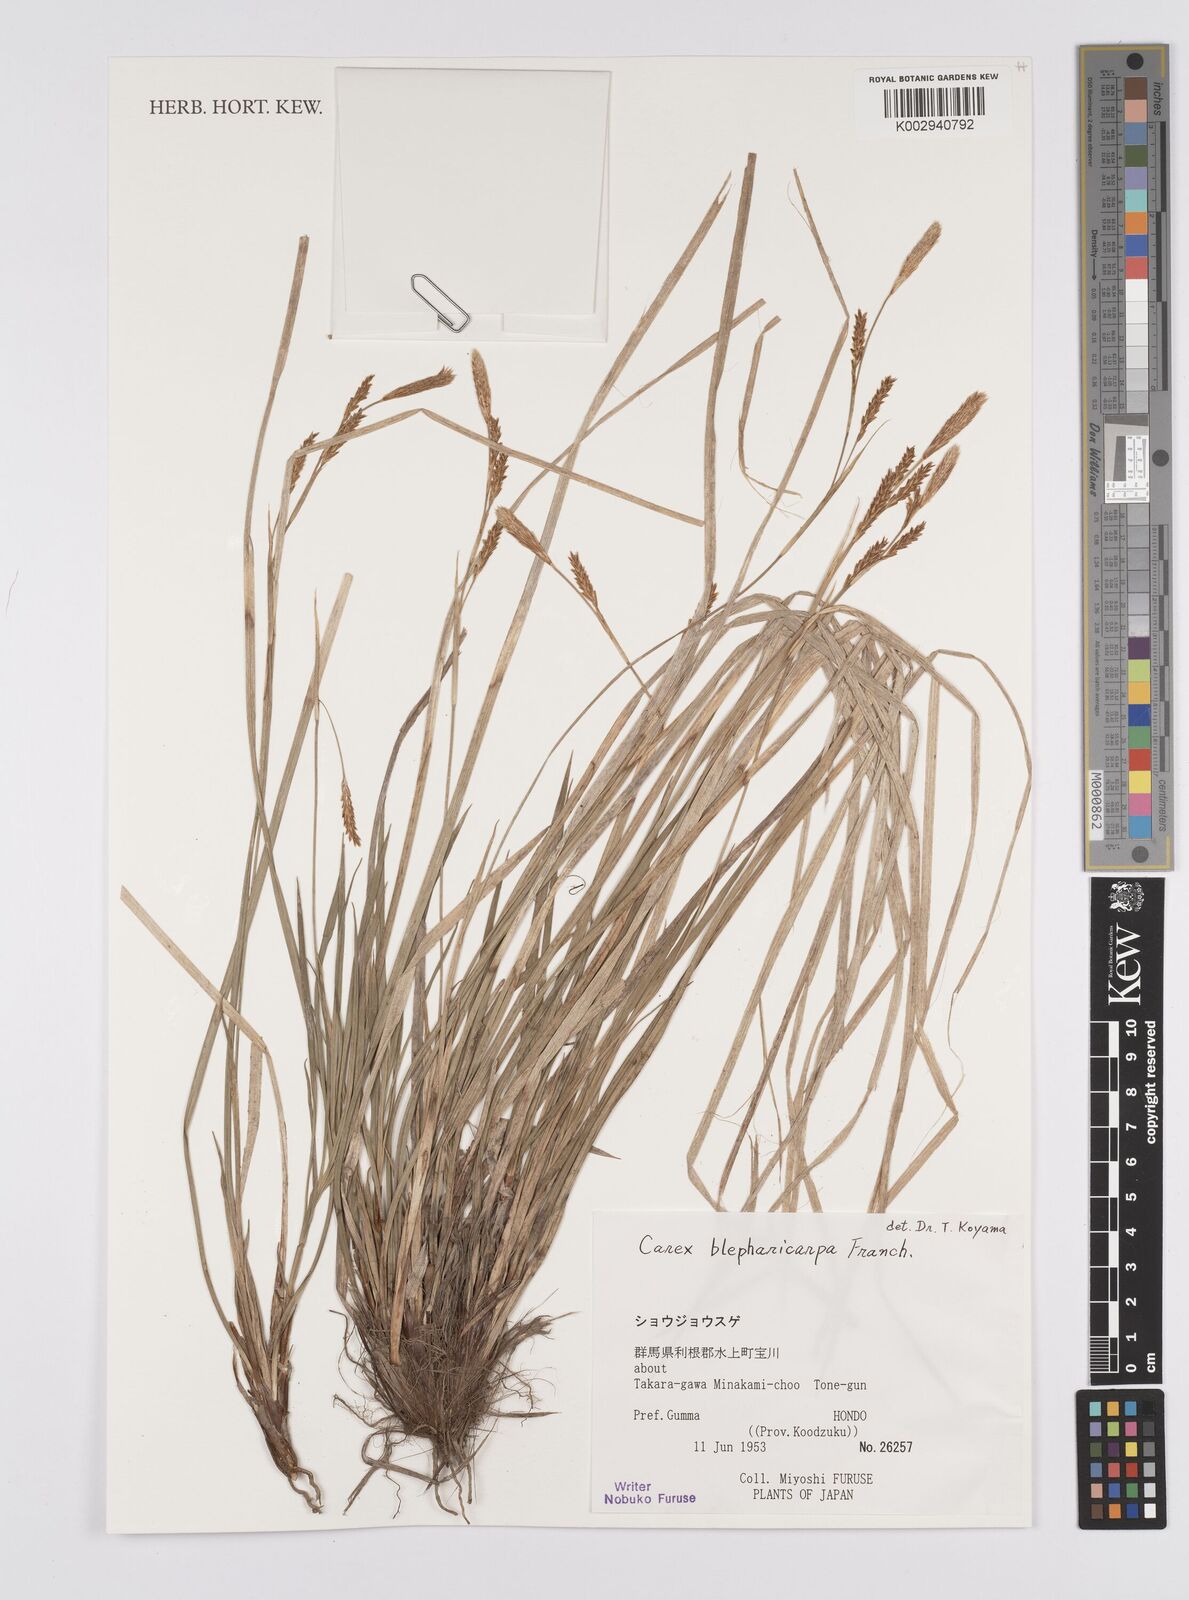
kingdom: Plantae
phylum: Tracheophyta
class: Liliopsida
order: Poales
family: Cyperaceae
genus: Carex
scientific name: Carex blepharicarpa
